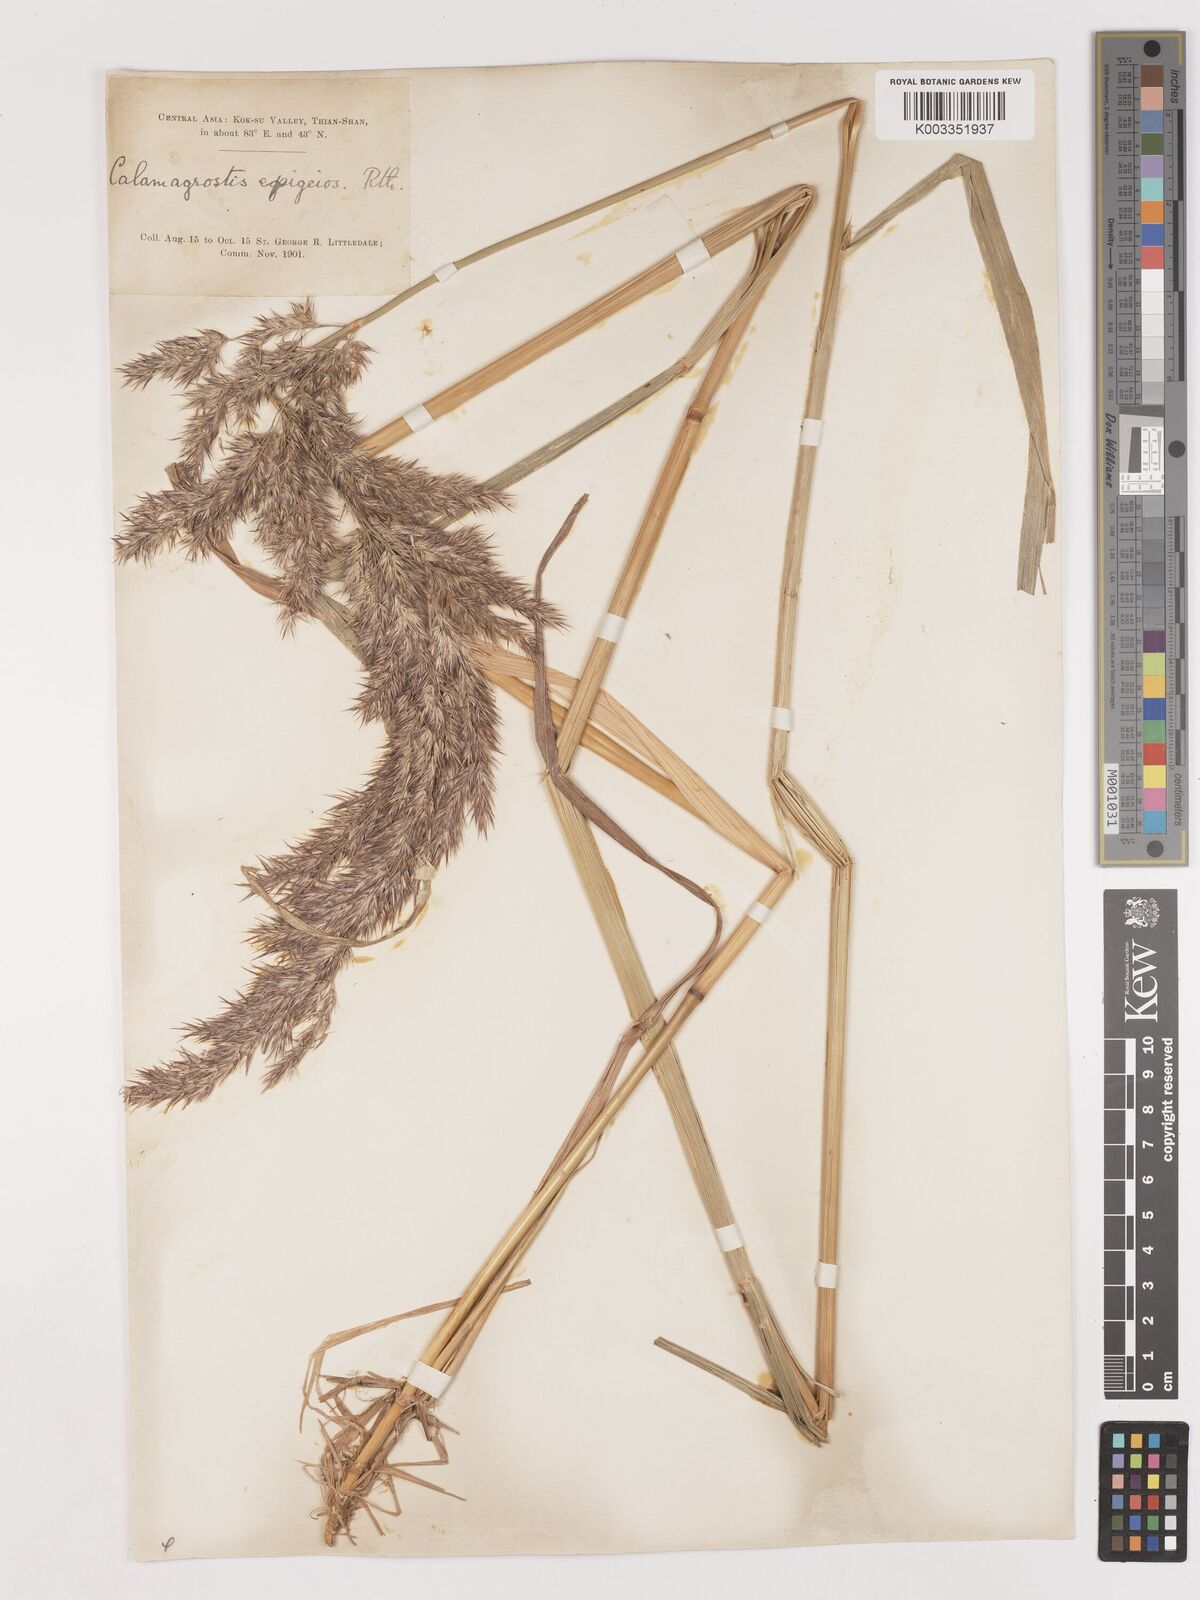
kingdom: Plantae
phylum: Tracheophyta
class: Liliopsida
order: Poales
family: Poaceae
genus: Calamagrostis
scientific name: Calamagrostis epigejos
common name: Wood small-reed
